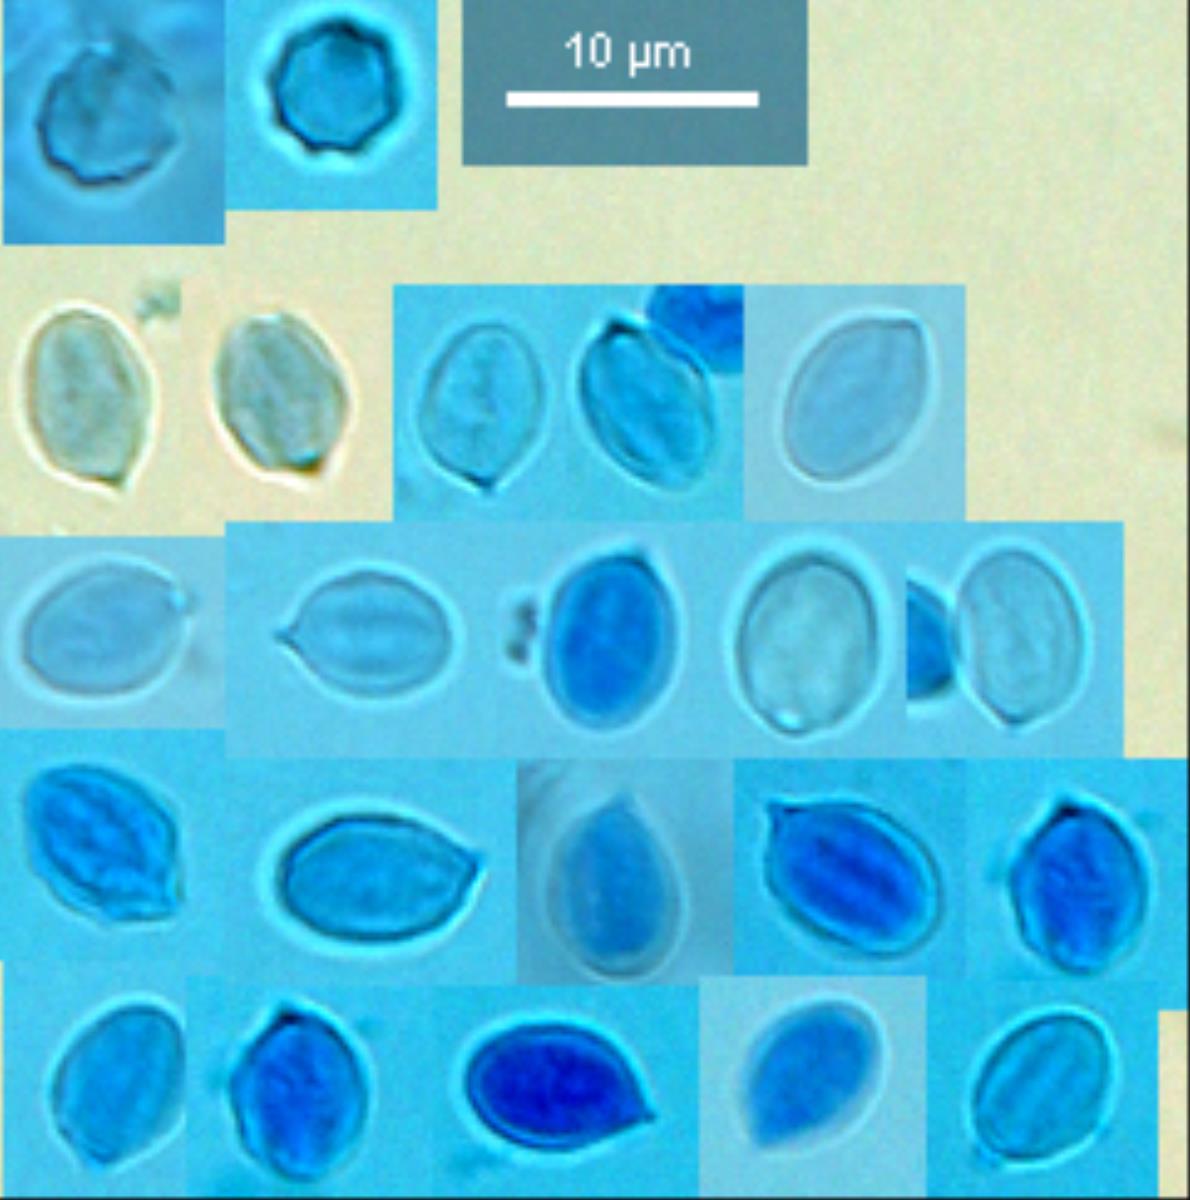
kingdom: Fungi
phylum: Basidiomycota
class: Agaricomycetes
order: Agaricales
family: Entolomataceae
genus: Clitopilus
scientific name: Clitopilus hobsonii
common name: Miller's oysterling
